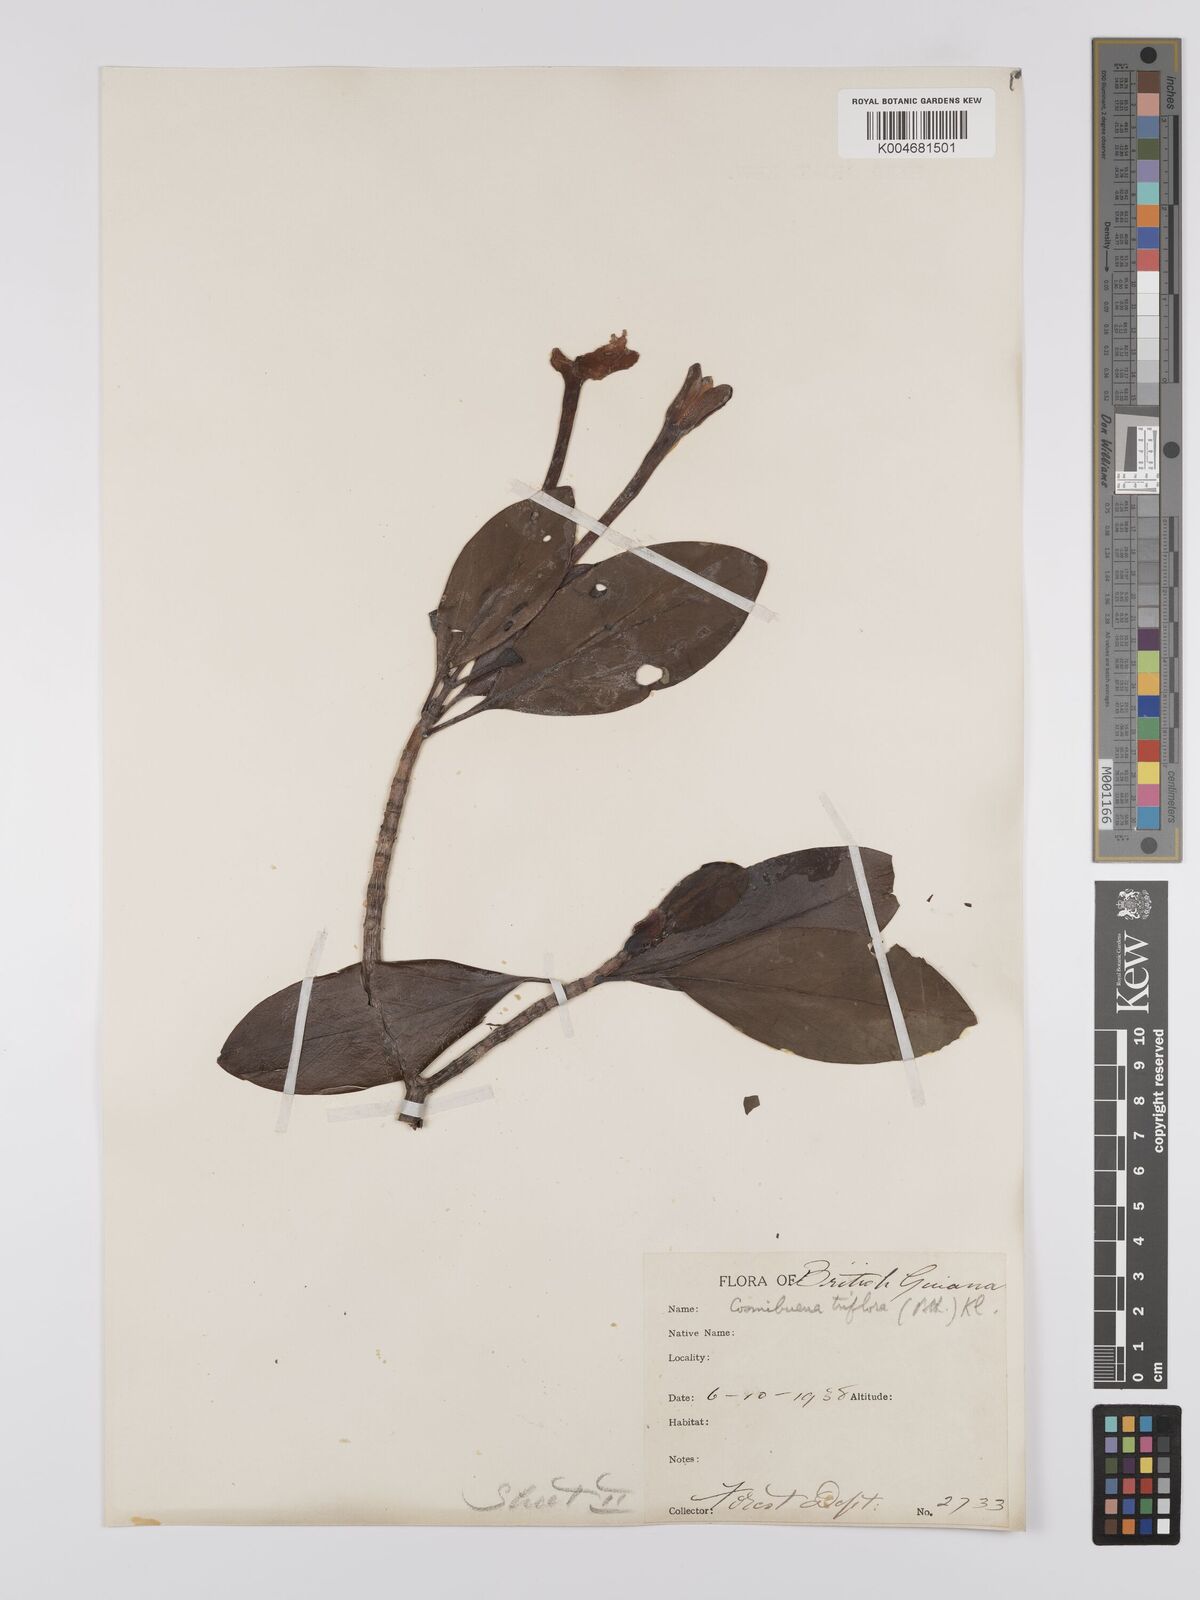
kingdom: Plantae
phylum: Tracheophyta
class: Magnoliopsida
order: Gentianales
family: Rubiaceae
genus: Cosmibuena
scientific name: Cosmibuena grandiflora
